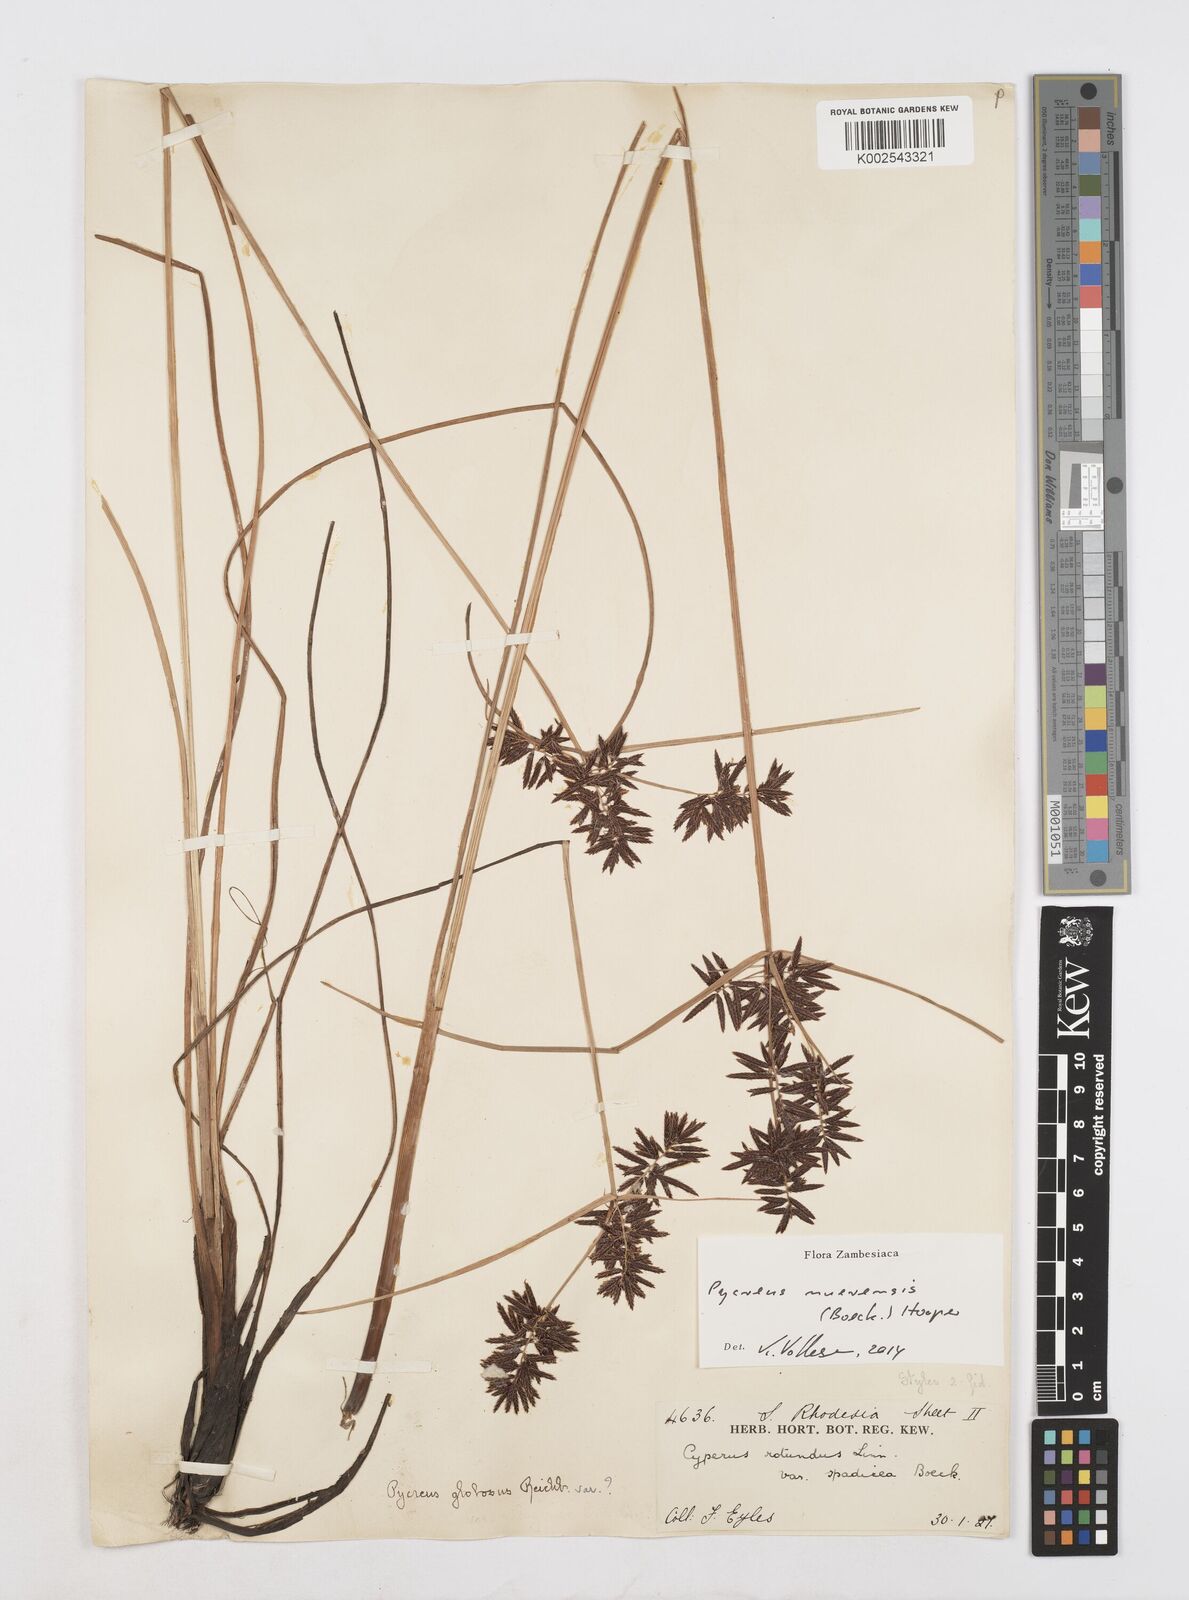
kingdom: Plantae
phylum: Tracheophyta
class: Liliopsida
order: Poales
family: Cyperaceae
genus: Cyperus
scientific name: Cyperus nuerensis
